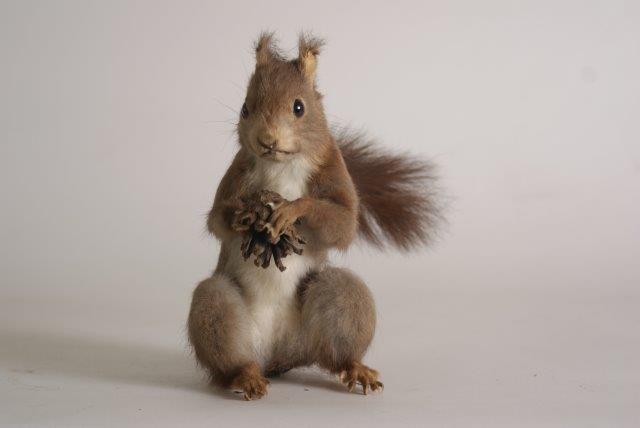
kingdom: Animalia
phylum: Chordata
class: Mammalia
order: Rodentia
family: Sciuridae
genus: Sciurus
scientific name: Sciurus vulgaris
